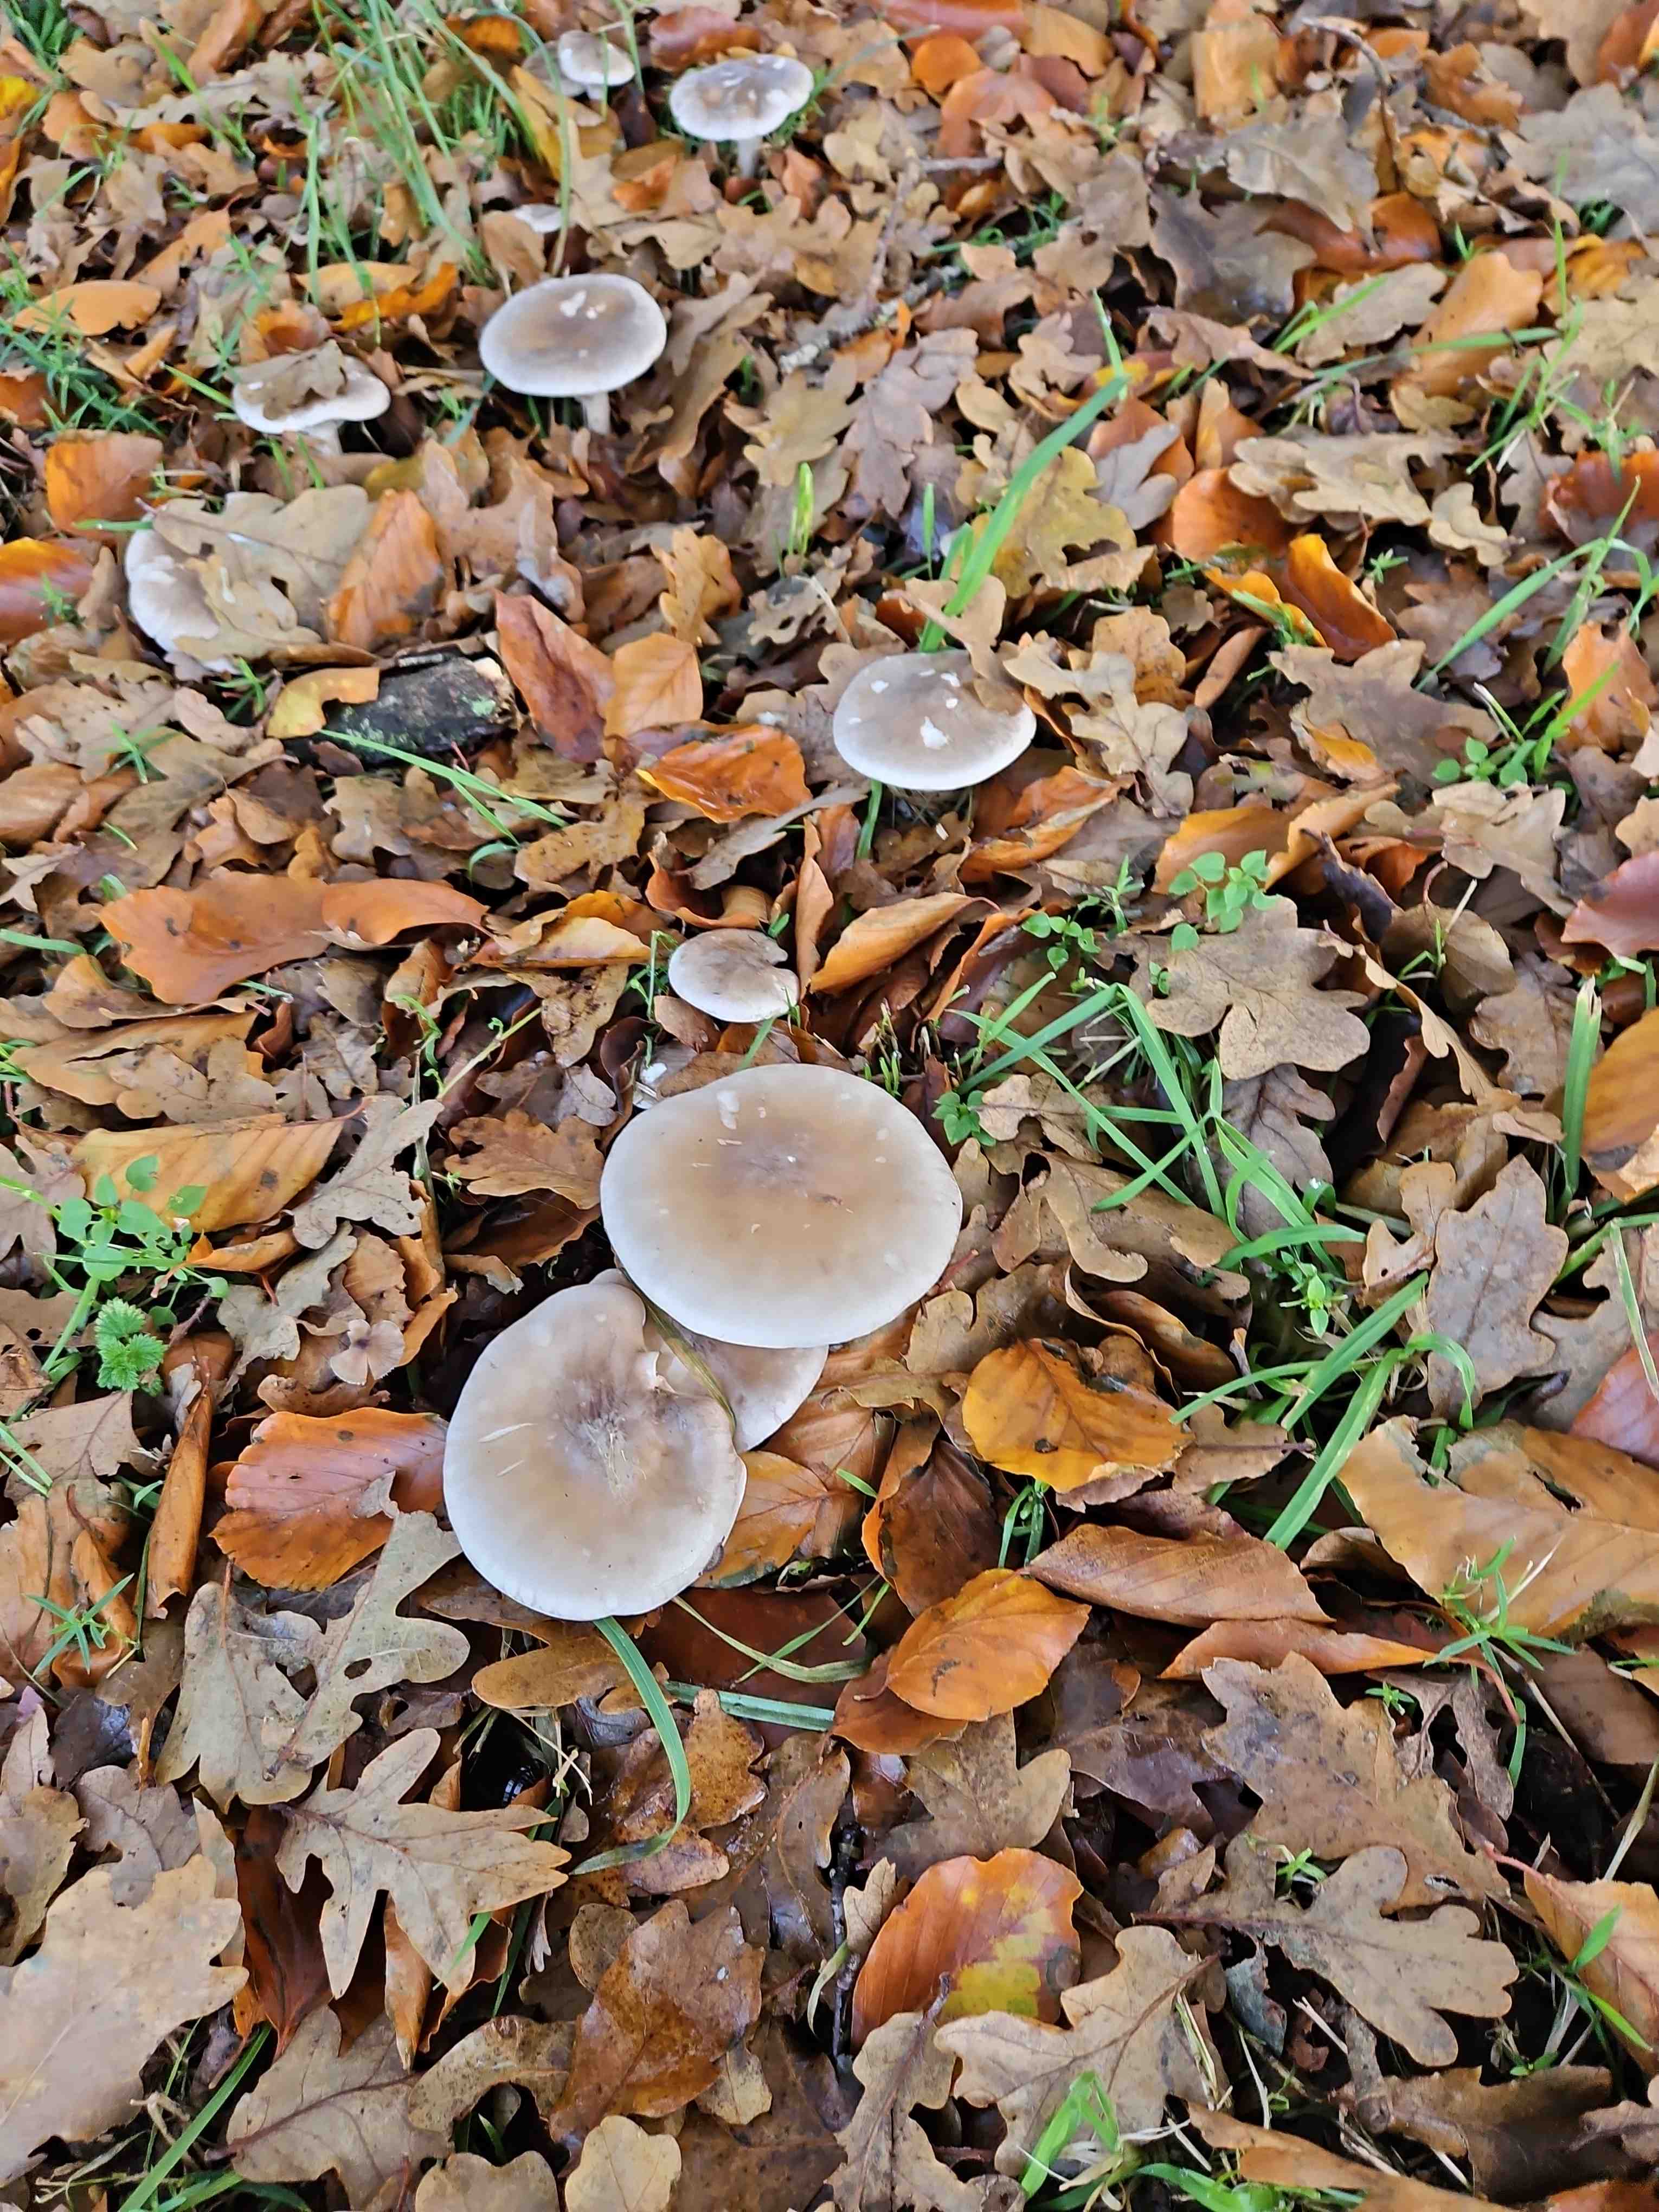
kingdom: Fungi
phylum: Basidiomycota
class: Agaricomycetes
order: Agaricales
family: Tricholomataceae
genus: Clitocybe
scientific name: Clitocybe nebularis
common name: tåge-tragthat
